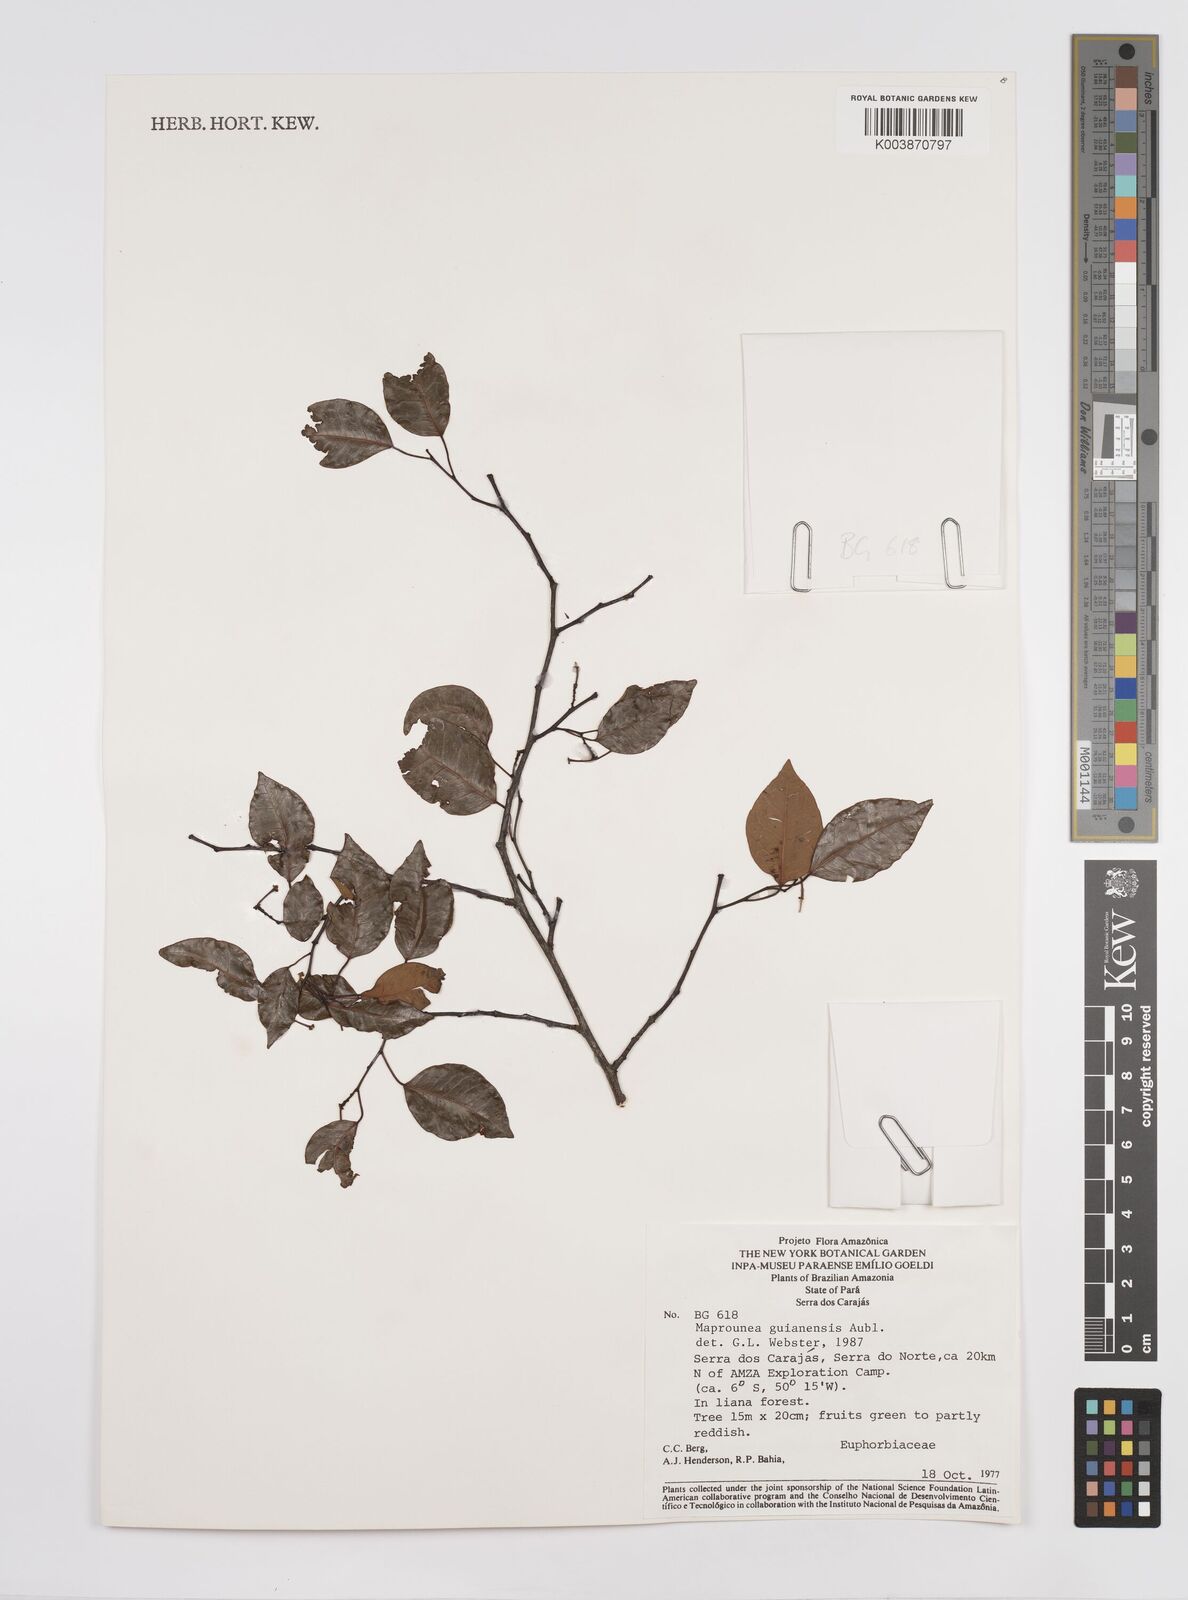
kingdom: Plantae
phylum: Tracheophyta
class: Magnoliopsida
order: Malpighiales
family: Euphorbiaceae
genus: Maprounea
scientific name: Maprounea guianensis
